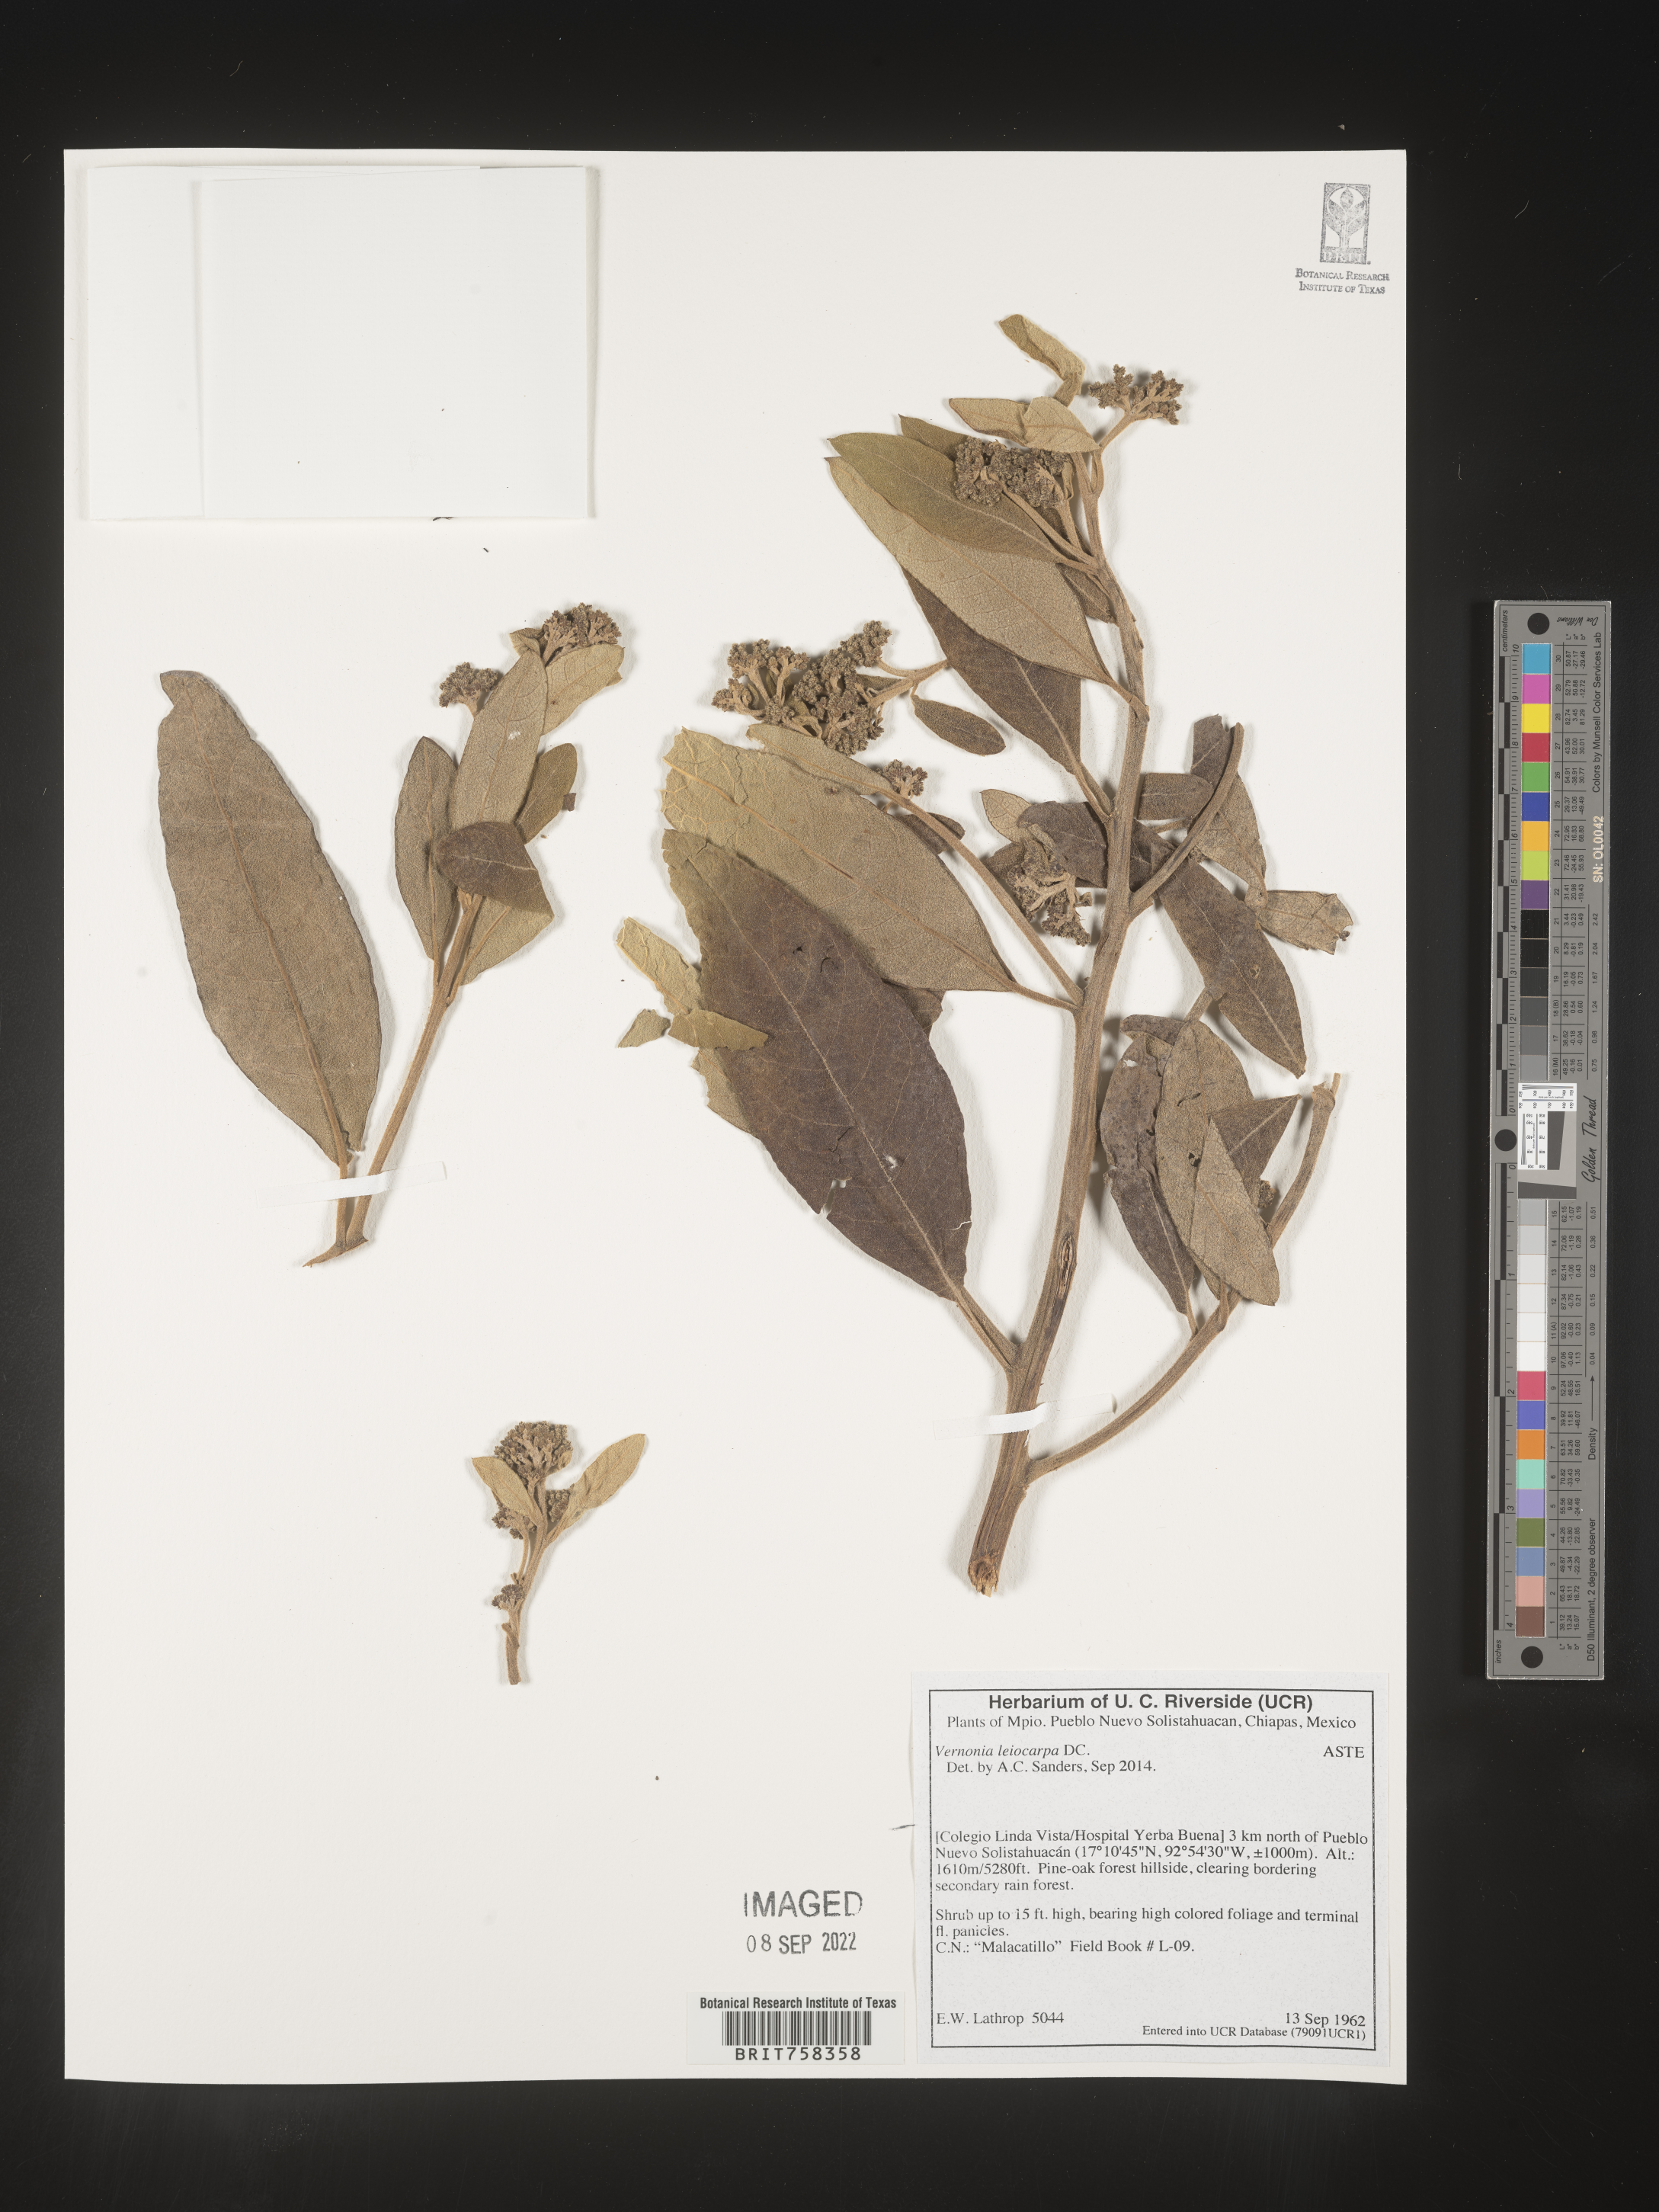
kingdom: Plantae
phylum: Tracheophyta
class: Magnoliopsida
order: Asterales
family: Asteraceae
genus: Eremosis
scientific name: Eremosis leiocarpa
